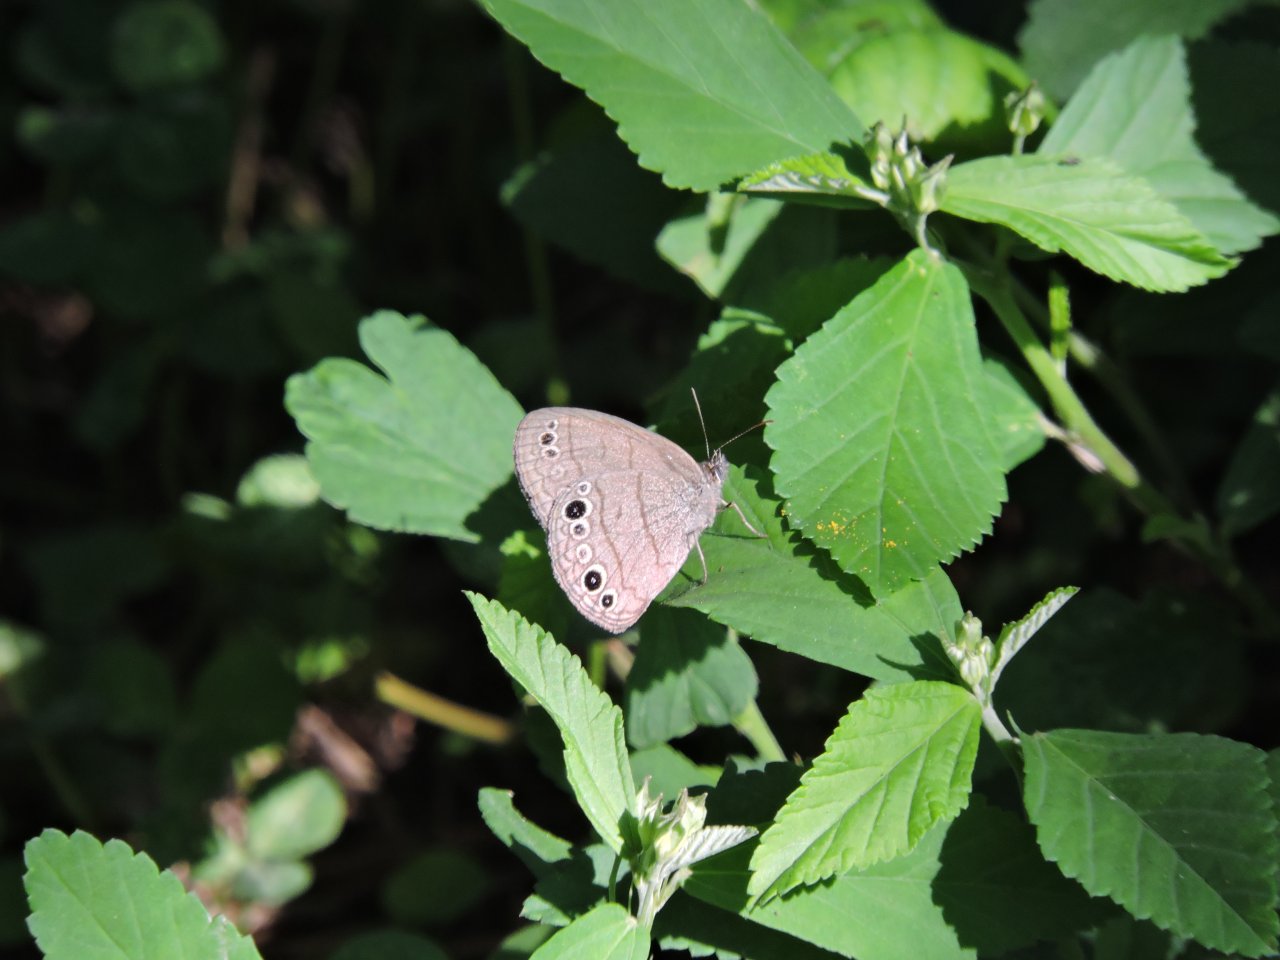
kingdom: Animalia
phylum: Arthropoda
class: Insecta
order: Lepidoptera
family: Nymphalidae
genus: Hermeuptychia
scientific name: Hermeuptychia hermes
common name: Carolina Satyr
